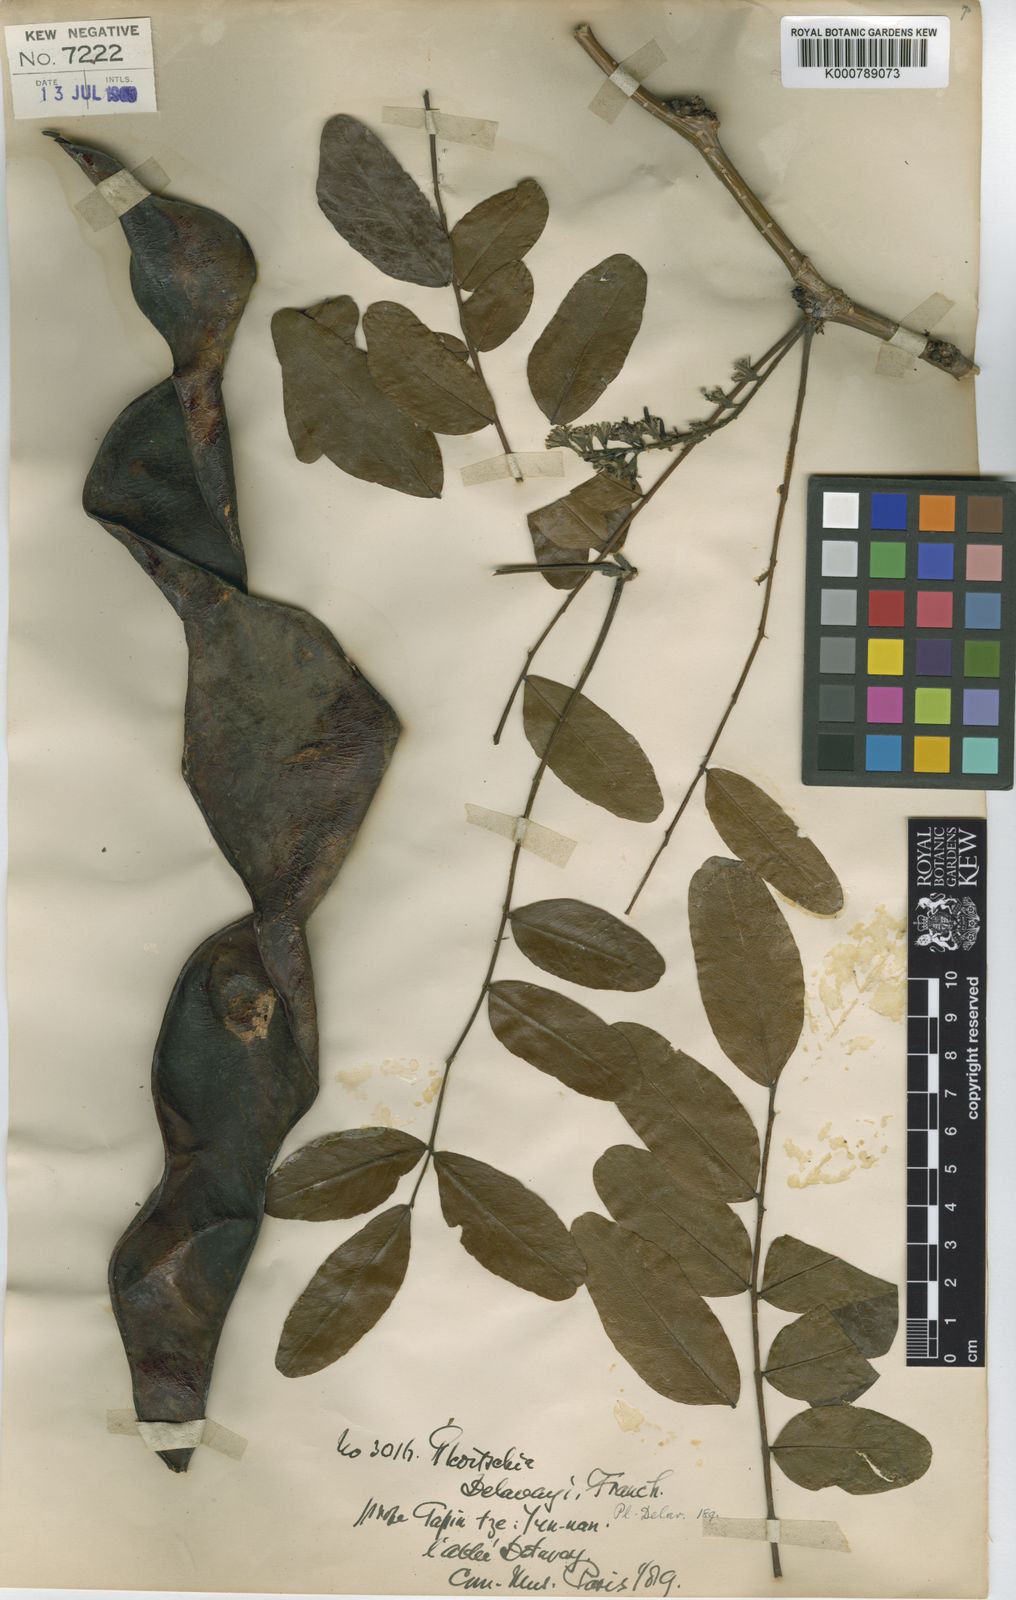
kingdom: Plantae
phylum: Tracheophyta
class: Magnoliopsida
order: Fabales
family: Fabaceae
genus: Gleditsia
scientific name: Gleditsia japonica
